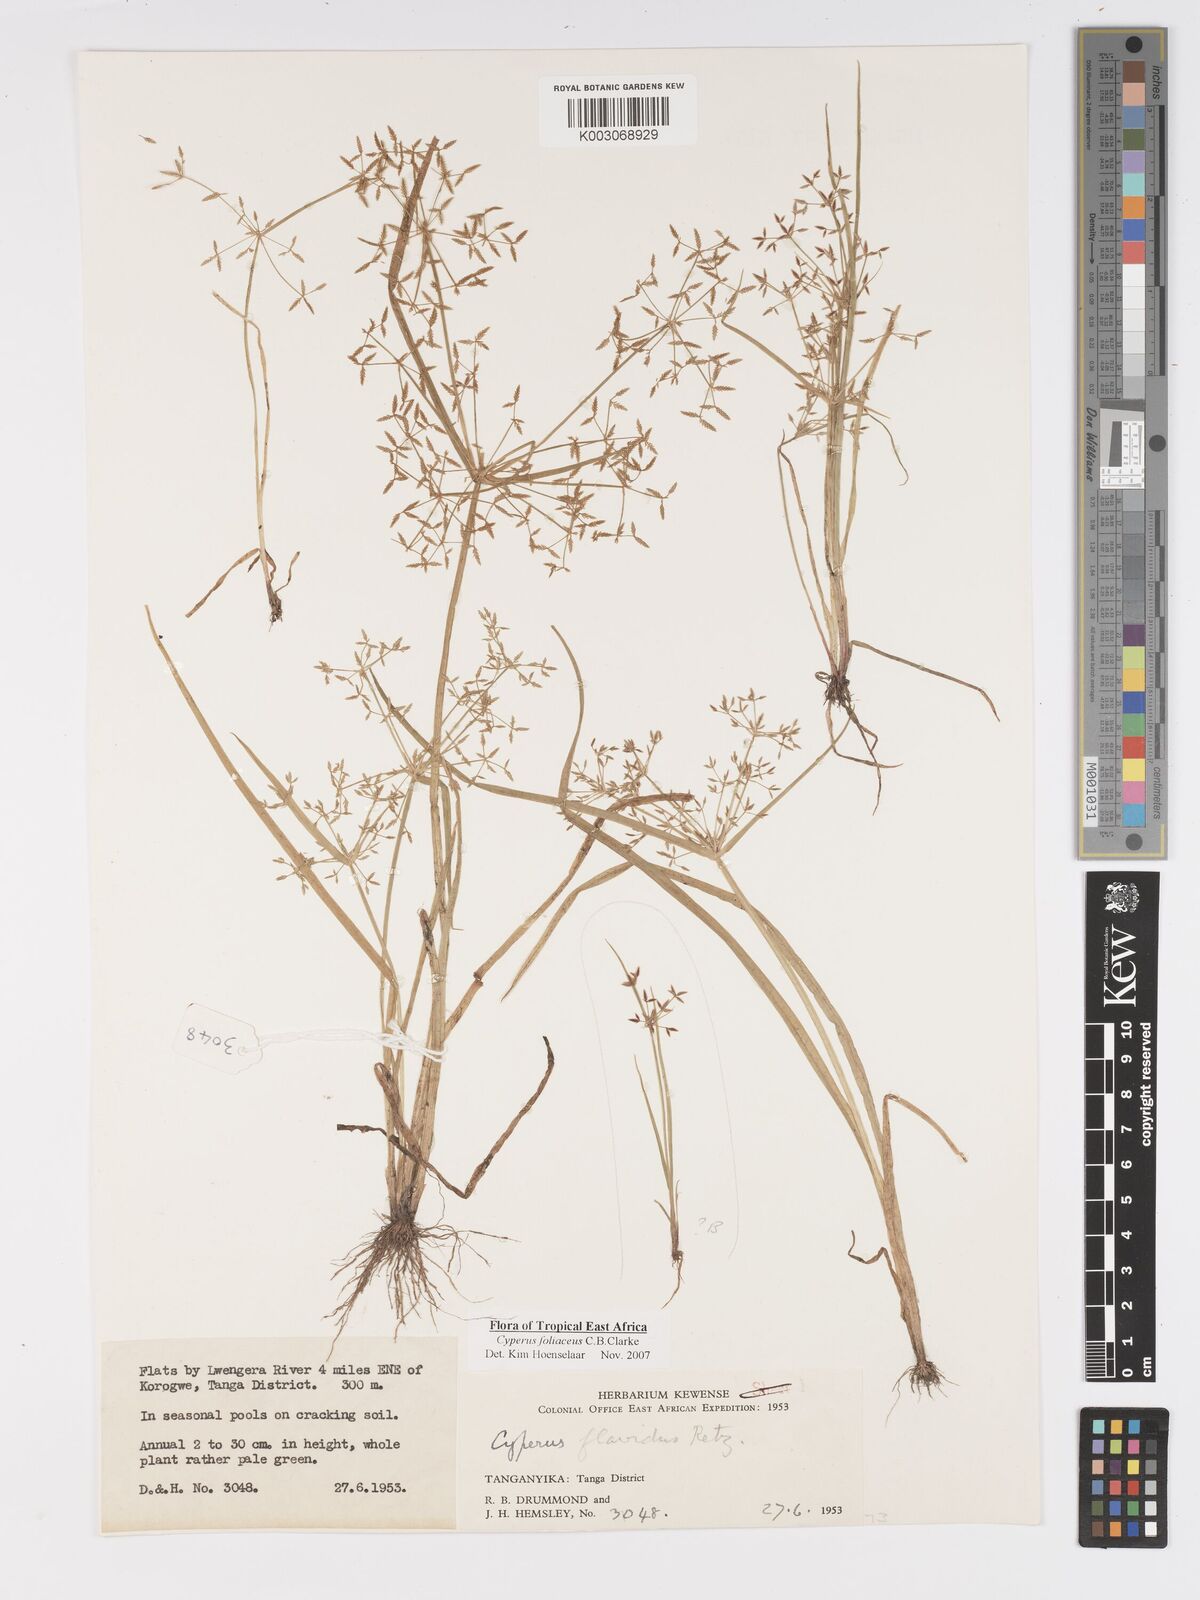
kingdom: Plantae
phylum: Tracheophyta
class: Liliopsida
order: Poales
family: Cyperaceae
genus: Cyperus
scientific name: Cyperus foliaceus
